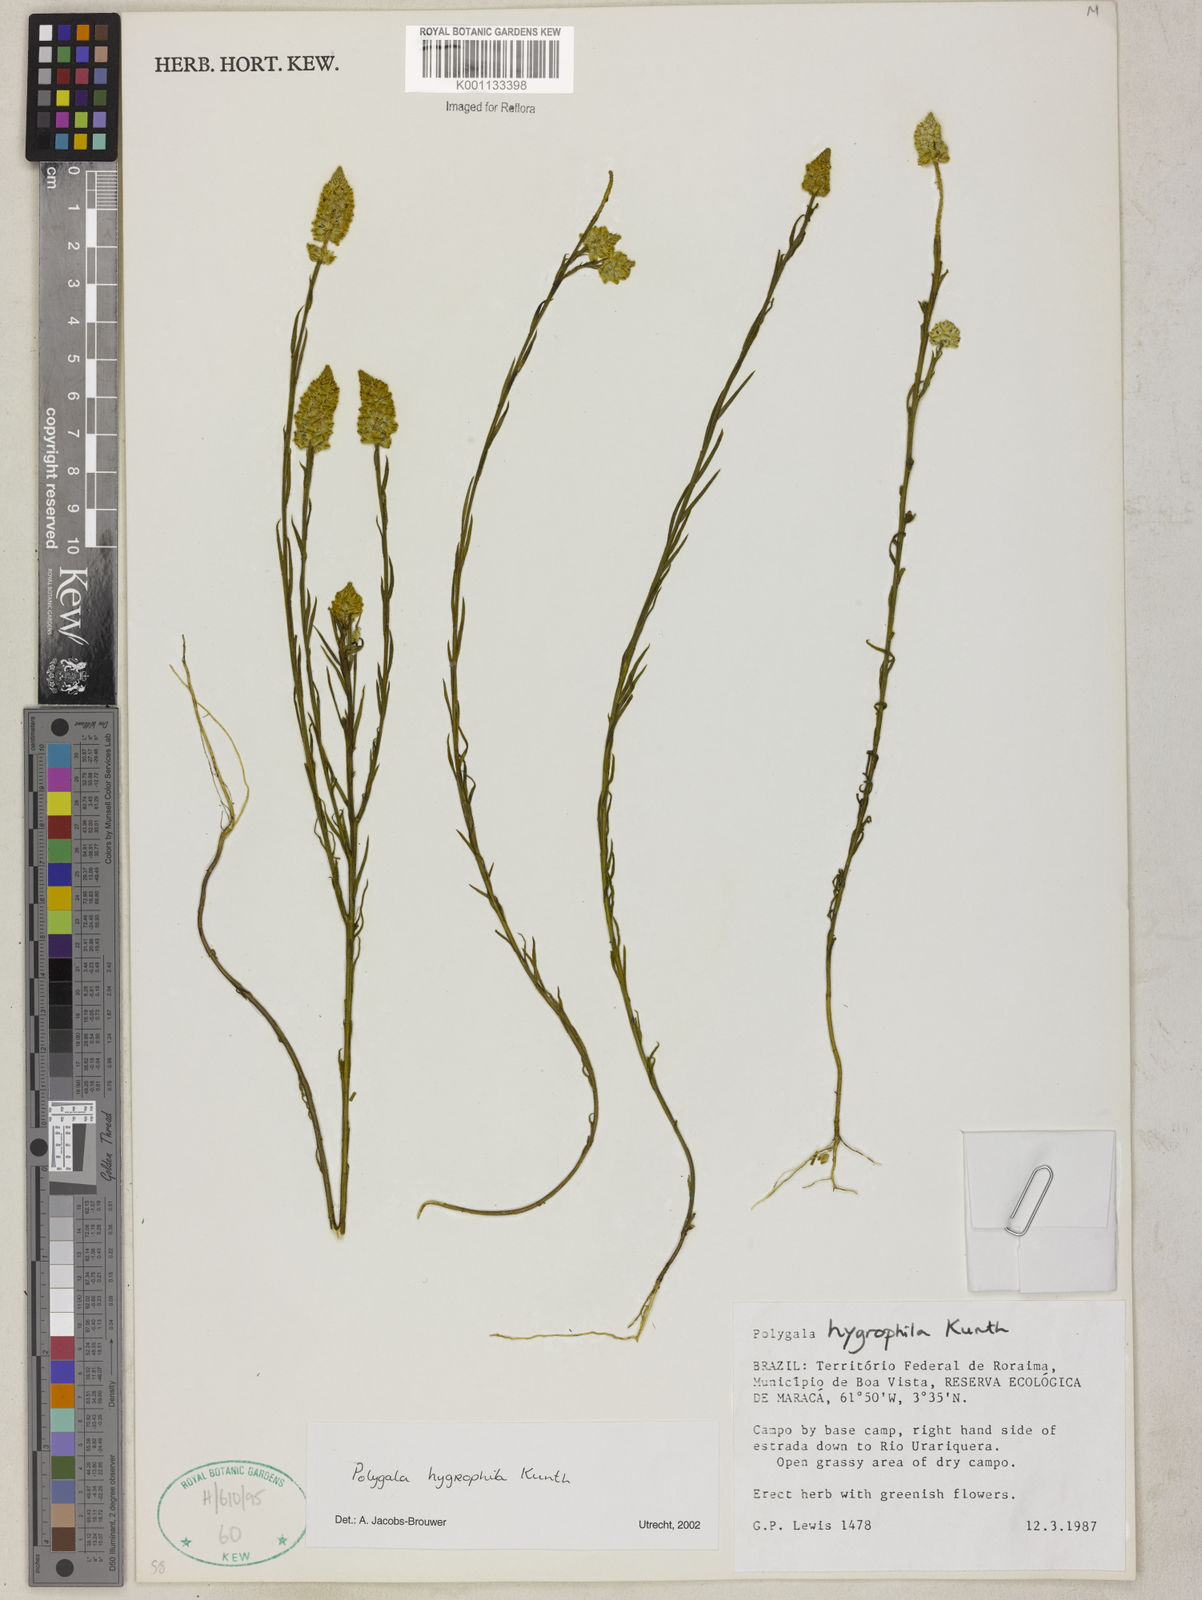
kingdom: Plantae
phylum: Tracheophyta
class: Magnoliopsida
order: Fabales
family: Polygalaceae
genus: Polygala
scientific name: Polygala hygrophila
